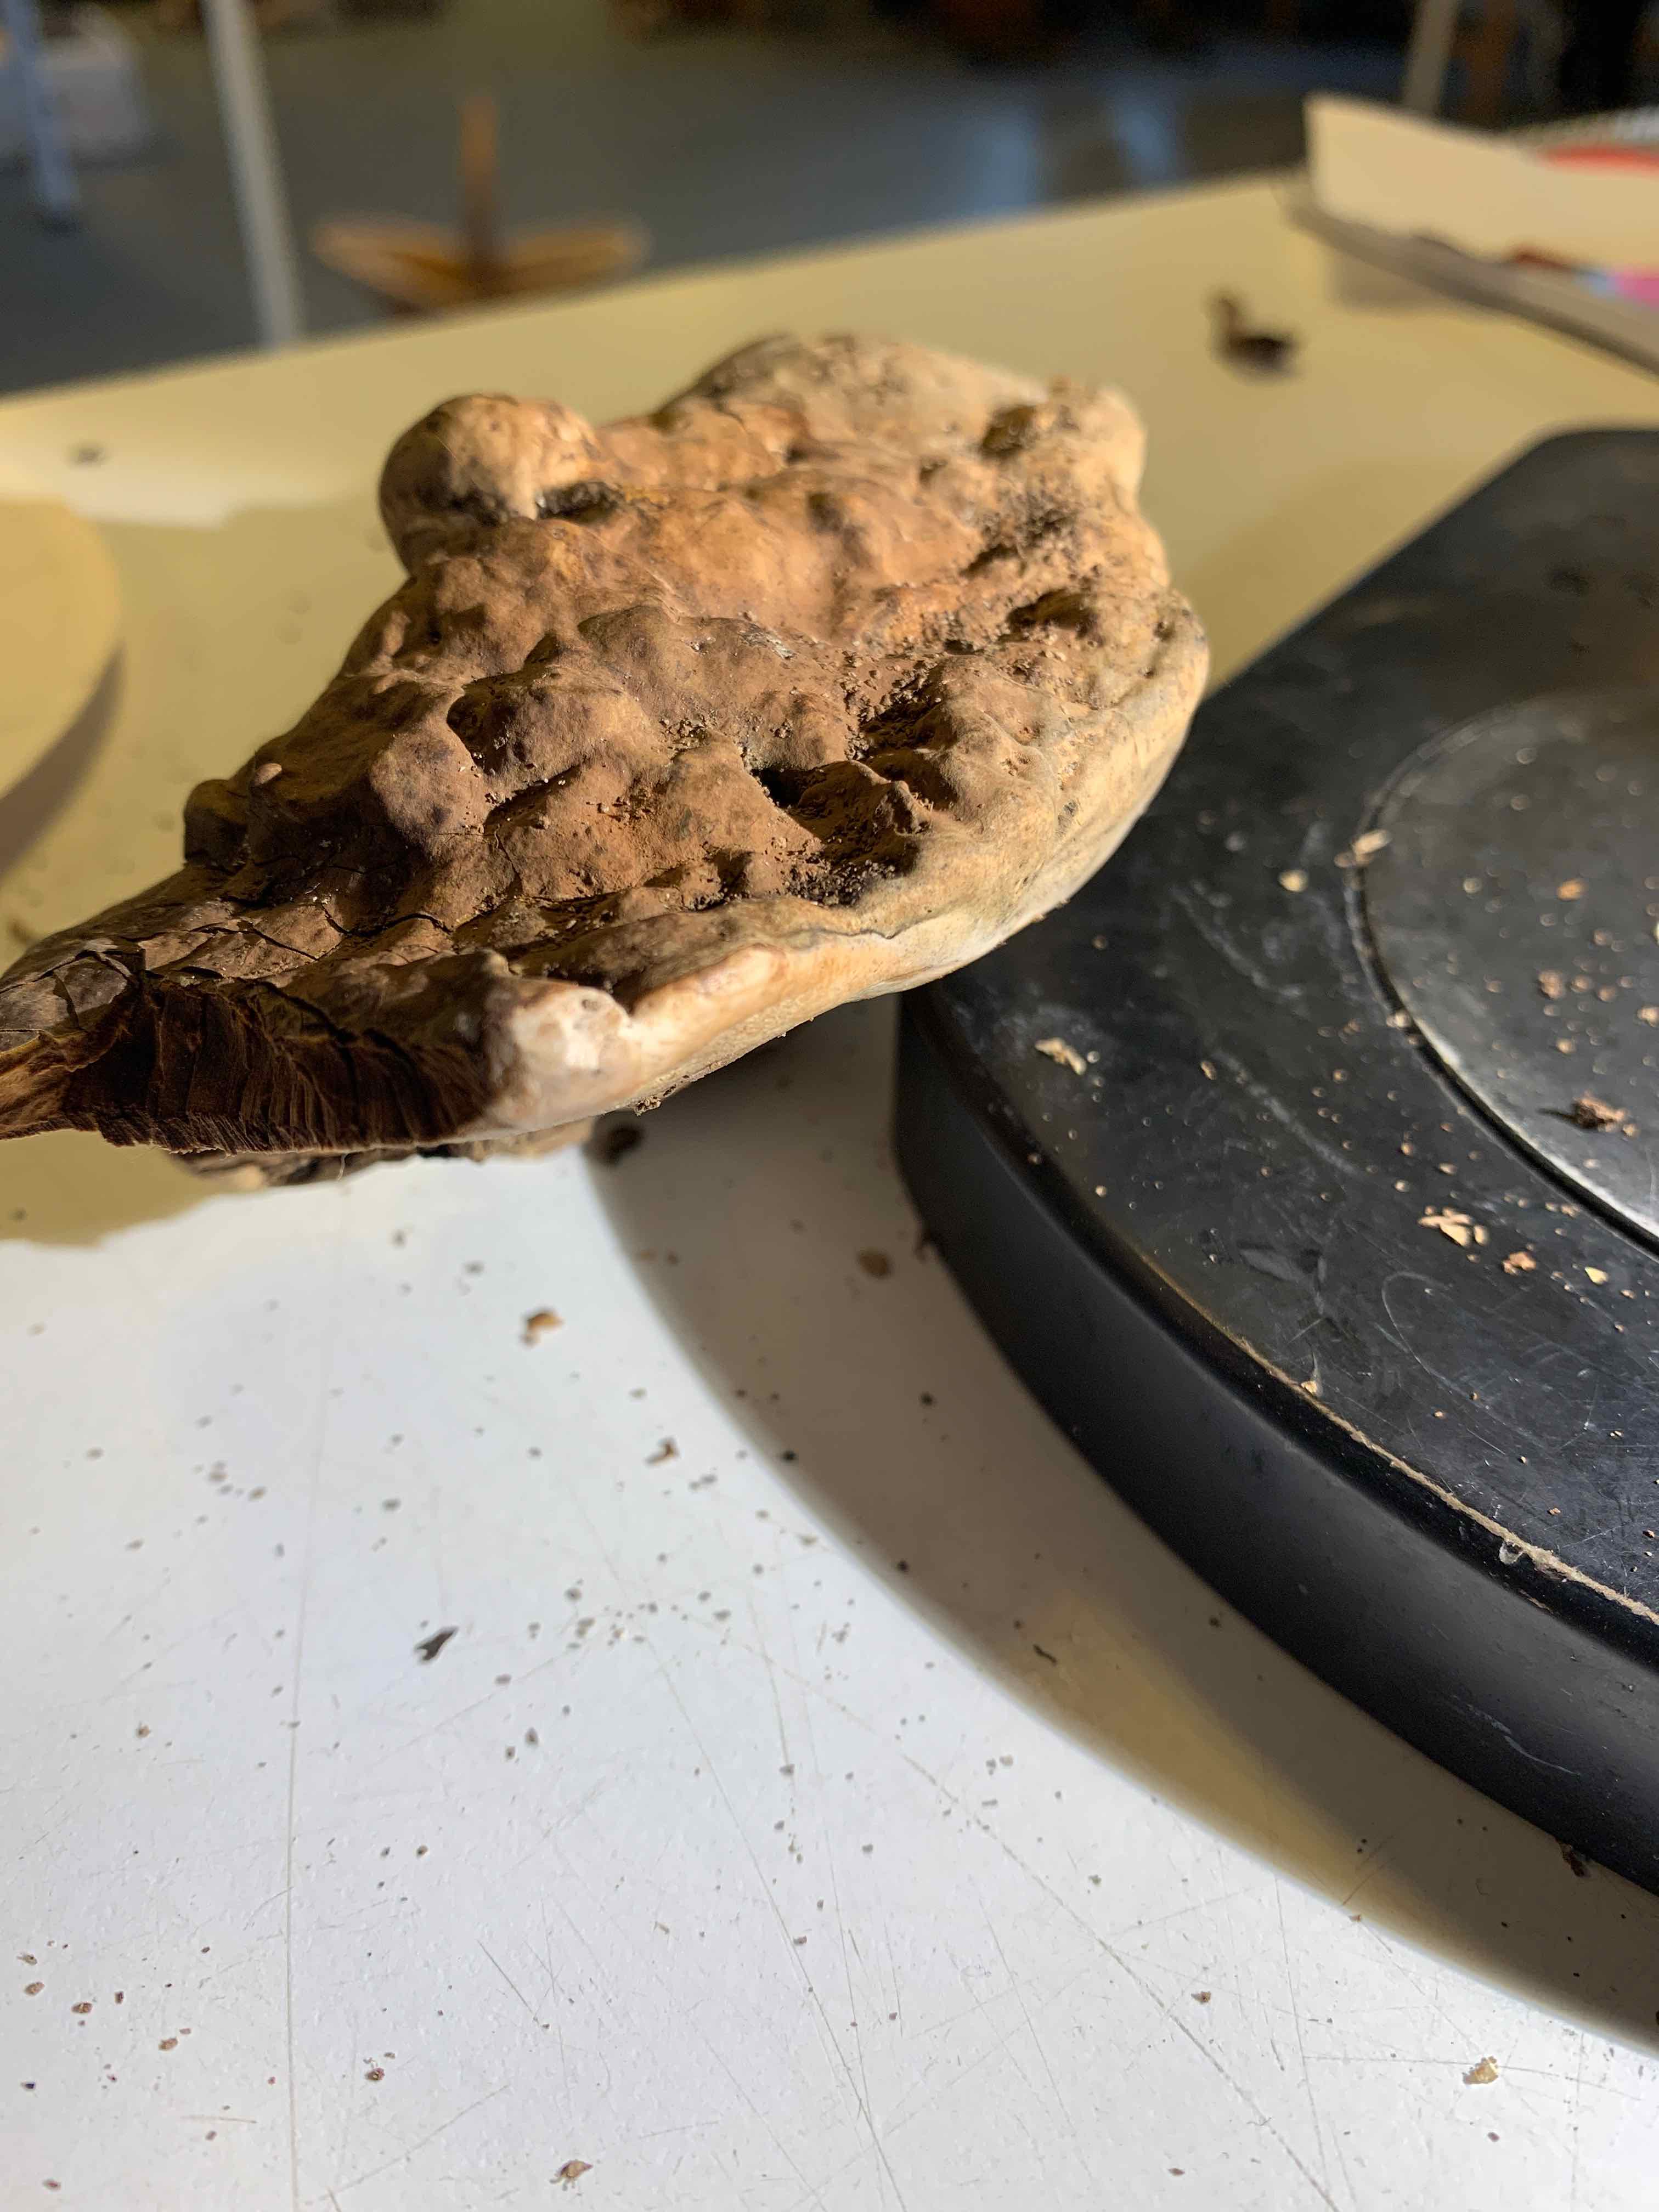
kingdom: Fungi
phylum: Basidiomycota
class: Agaricomycetes
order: Polyporales
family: Polyporaceae
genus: Ganoderma
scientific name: Ganoderma applanatum
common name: flad lakporesvamp
